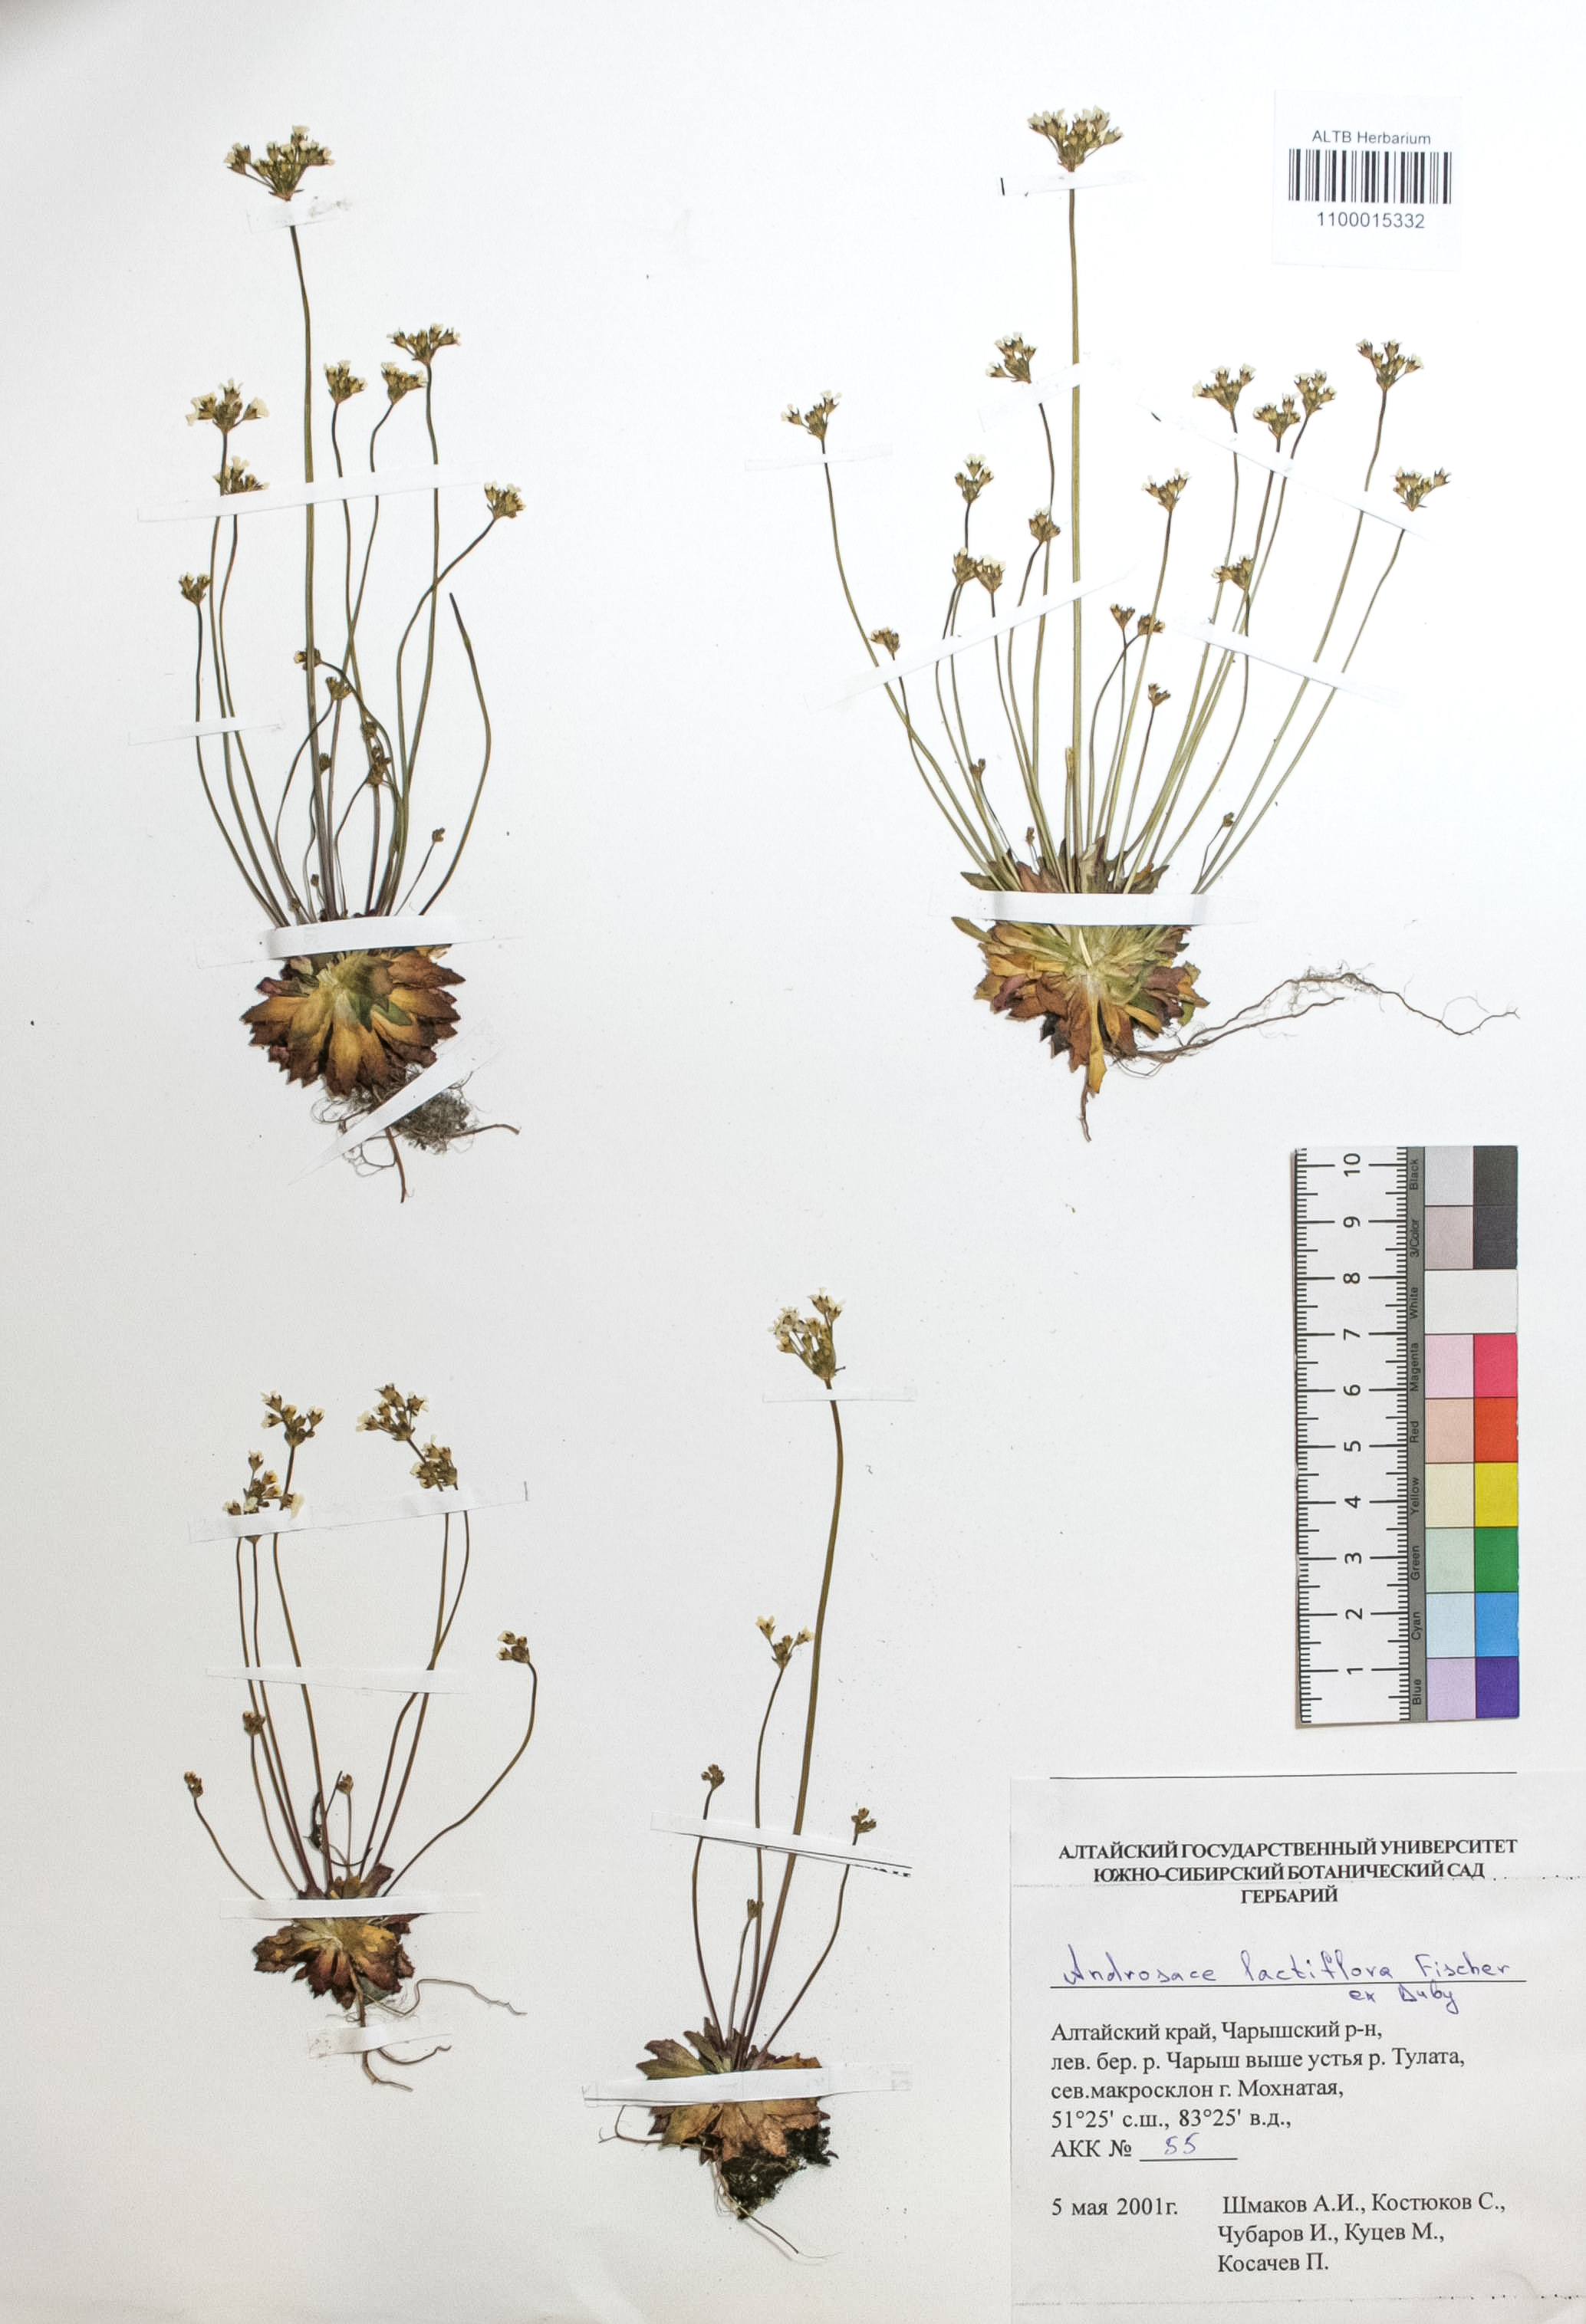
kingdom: Plantae
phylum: Tracheophyta
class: Magnoliopsida
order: Ericales
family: Primulaceae
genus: Androsace
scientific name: Androsace lactiflora
